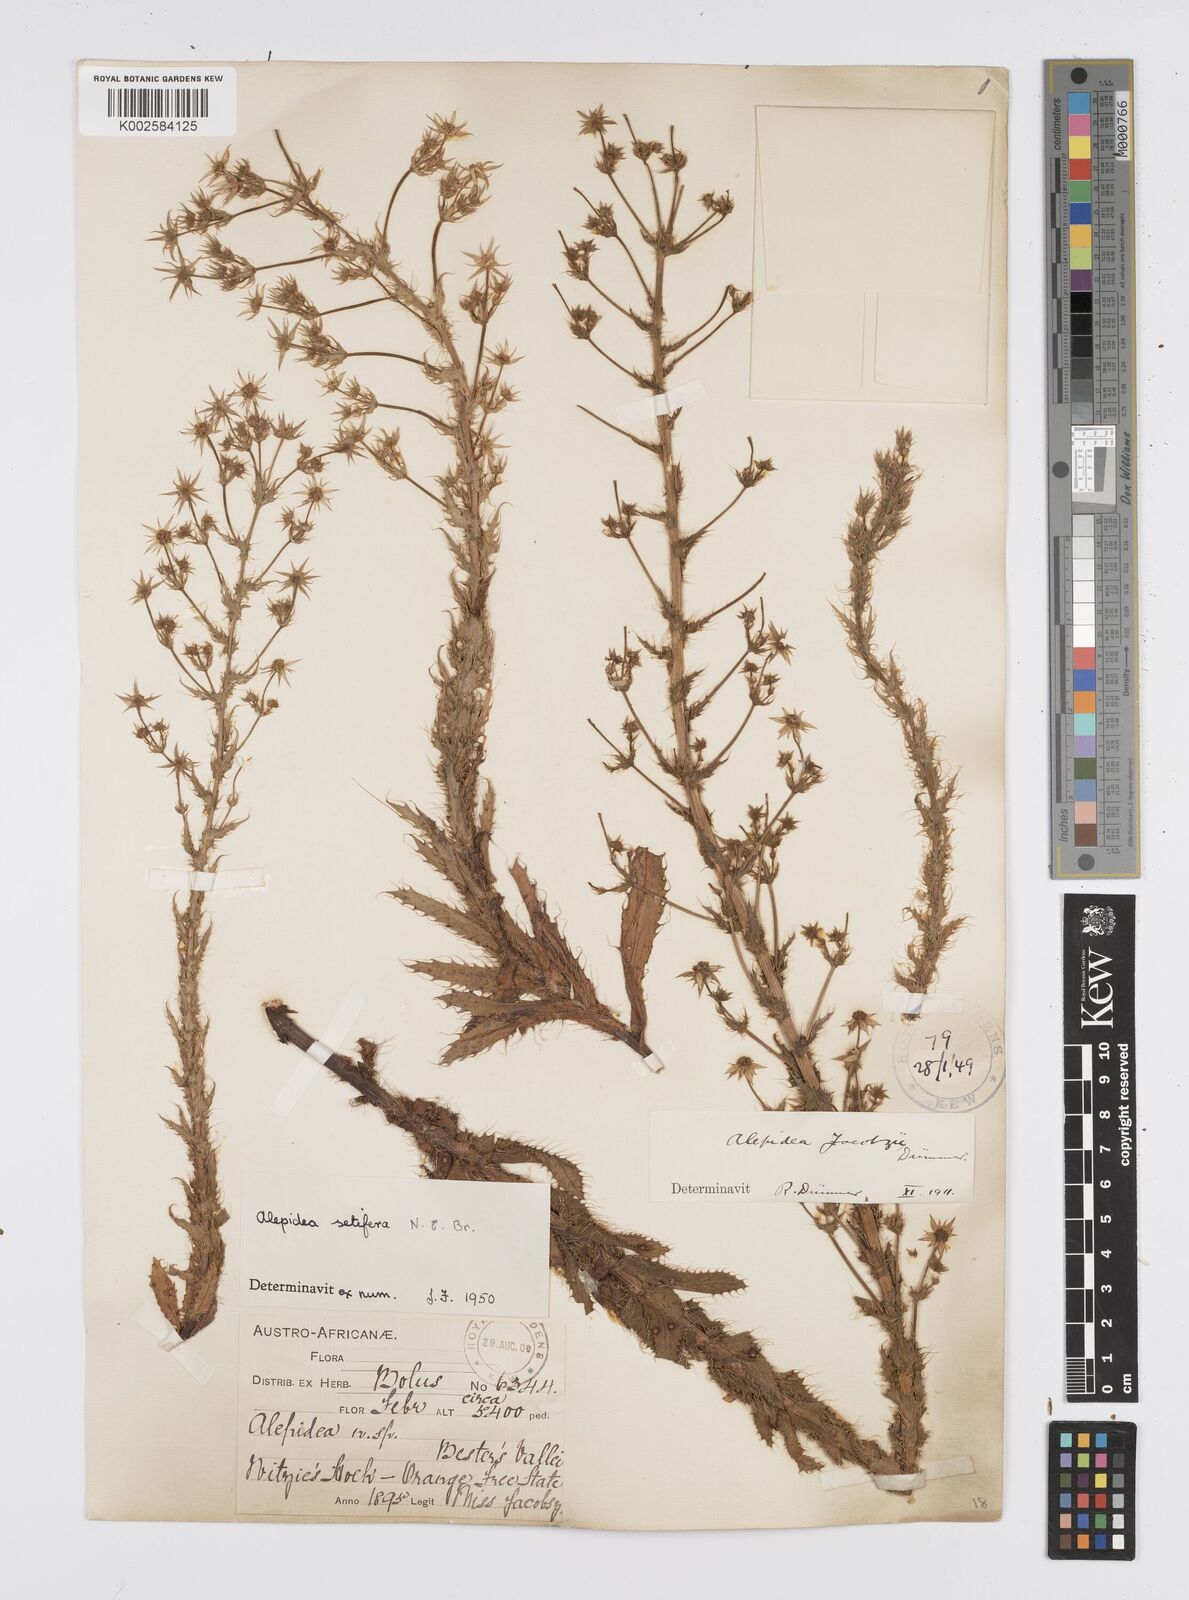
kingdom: Plantae
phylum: Tracheophyta
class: Magnoliopsida
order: Apiales
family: Apiaceae
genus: Alepidea
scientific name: Alepidea setifera
